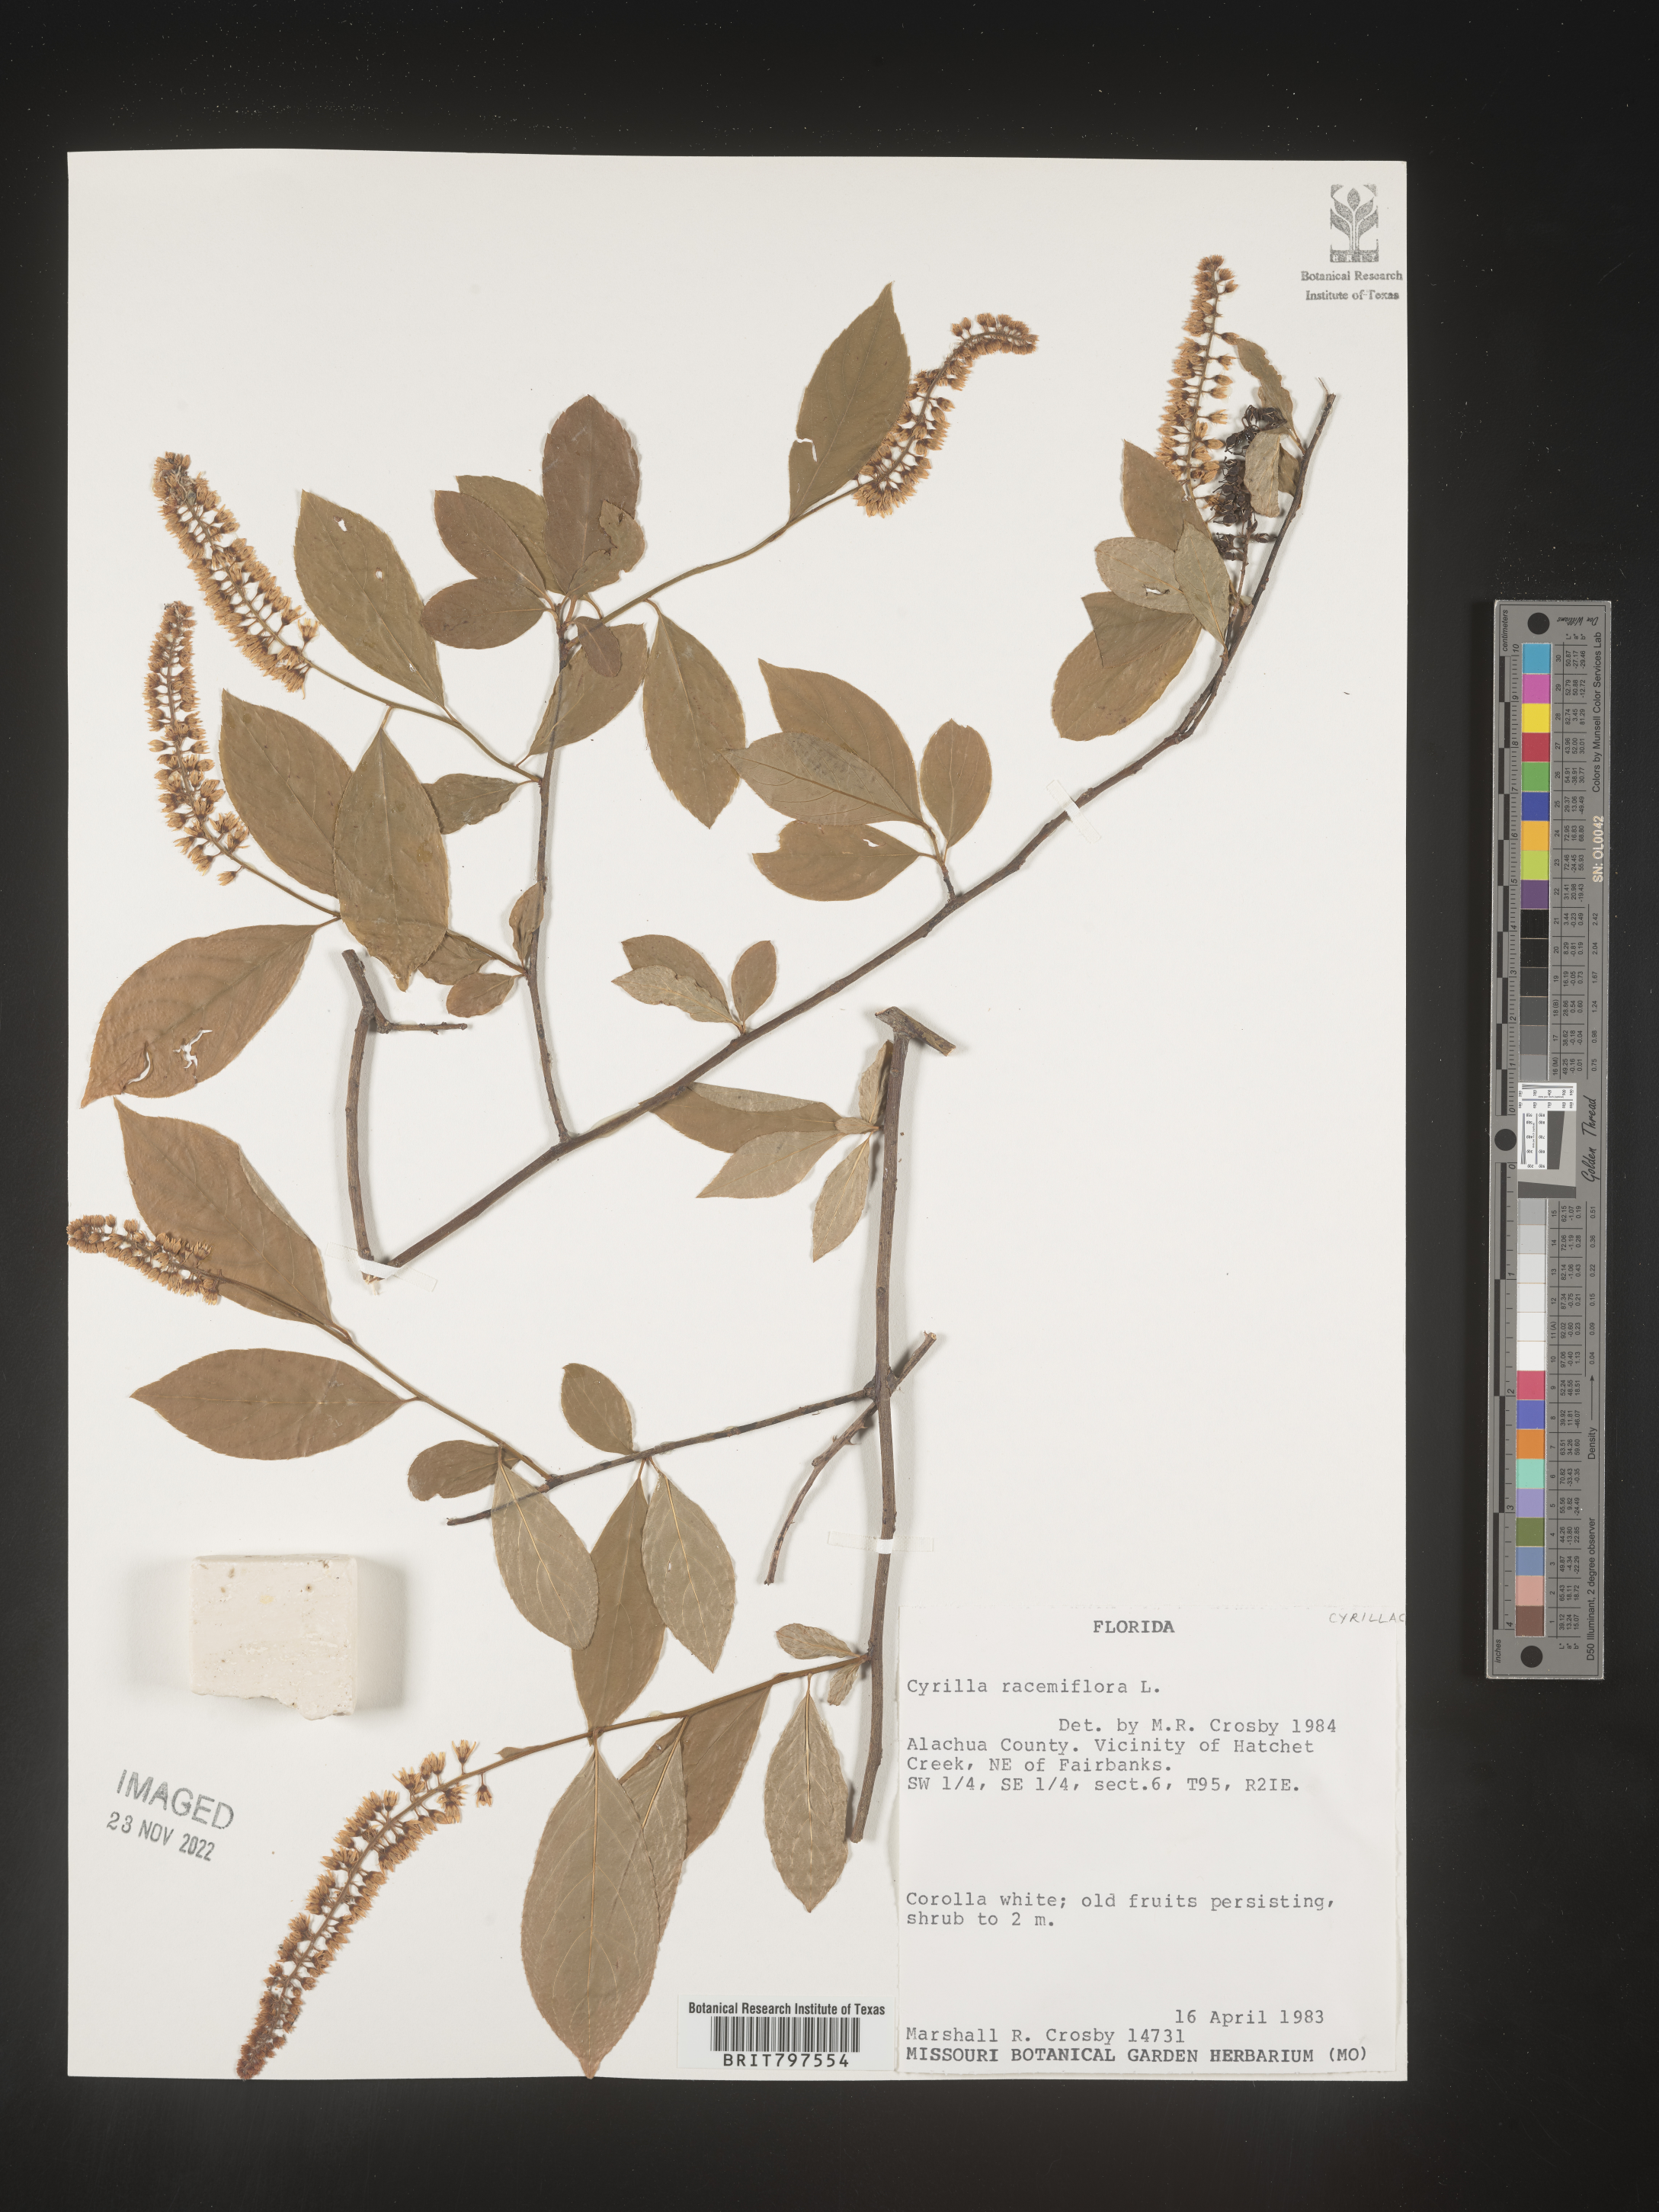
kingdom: Plantae
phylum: Tracheophyta
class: Magnoliopsida
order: Ericales
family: Cyrillaceae
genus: Cyrilla
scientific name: Cyrilla racemiflora
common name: Black titi
